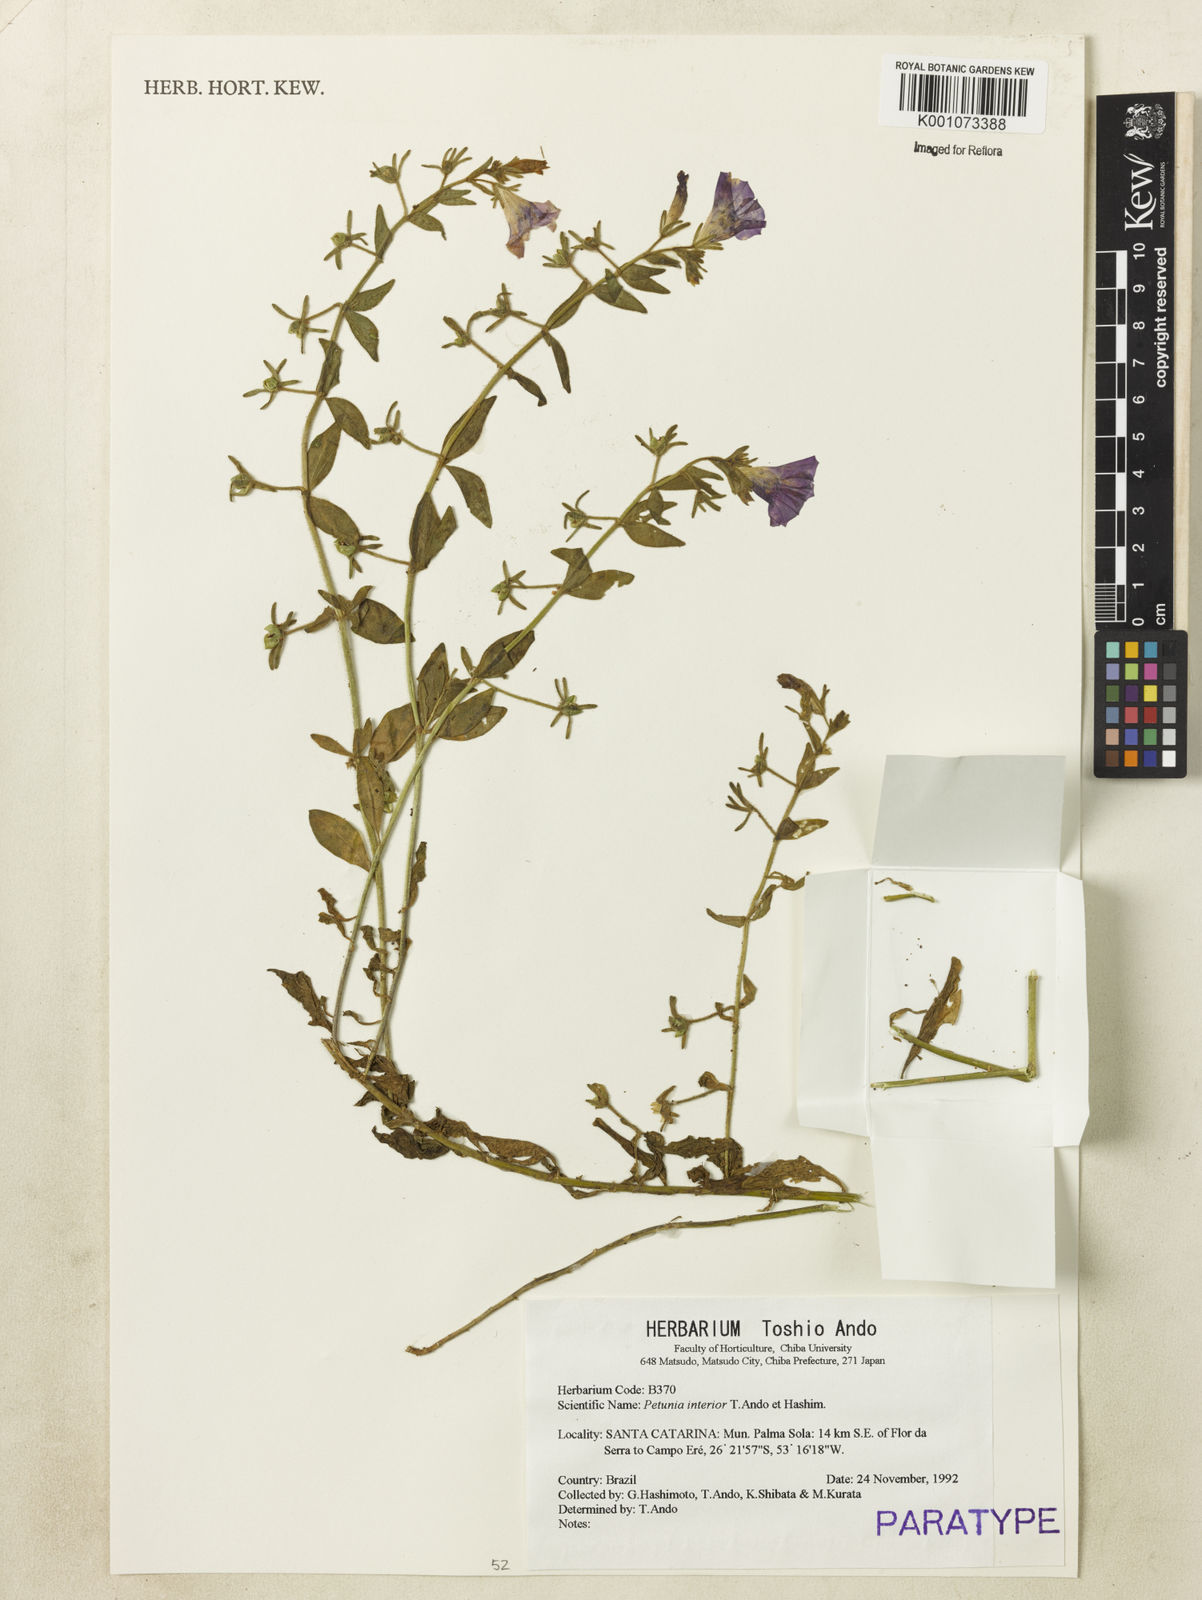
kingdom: Plantae
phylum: Tracheophyta
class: Magnoliopsida
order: Solanales
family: Solanaceae
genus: Petunia
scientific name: Petunia interior
